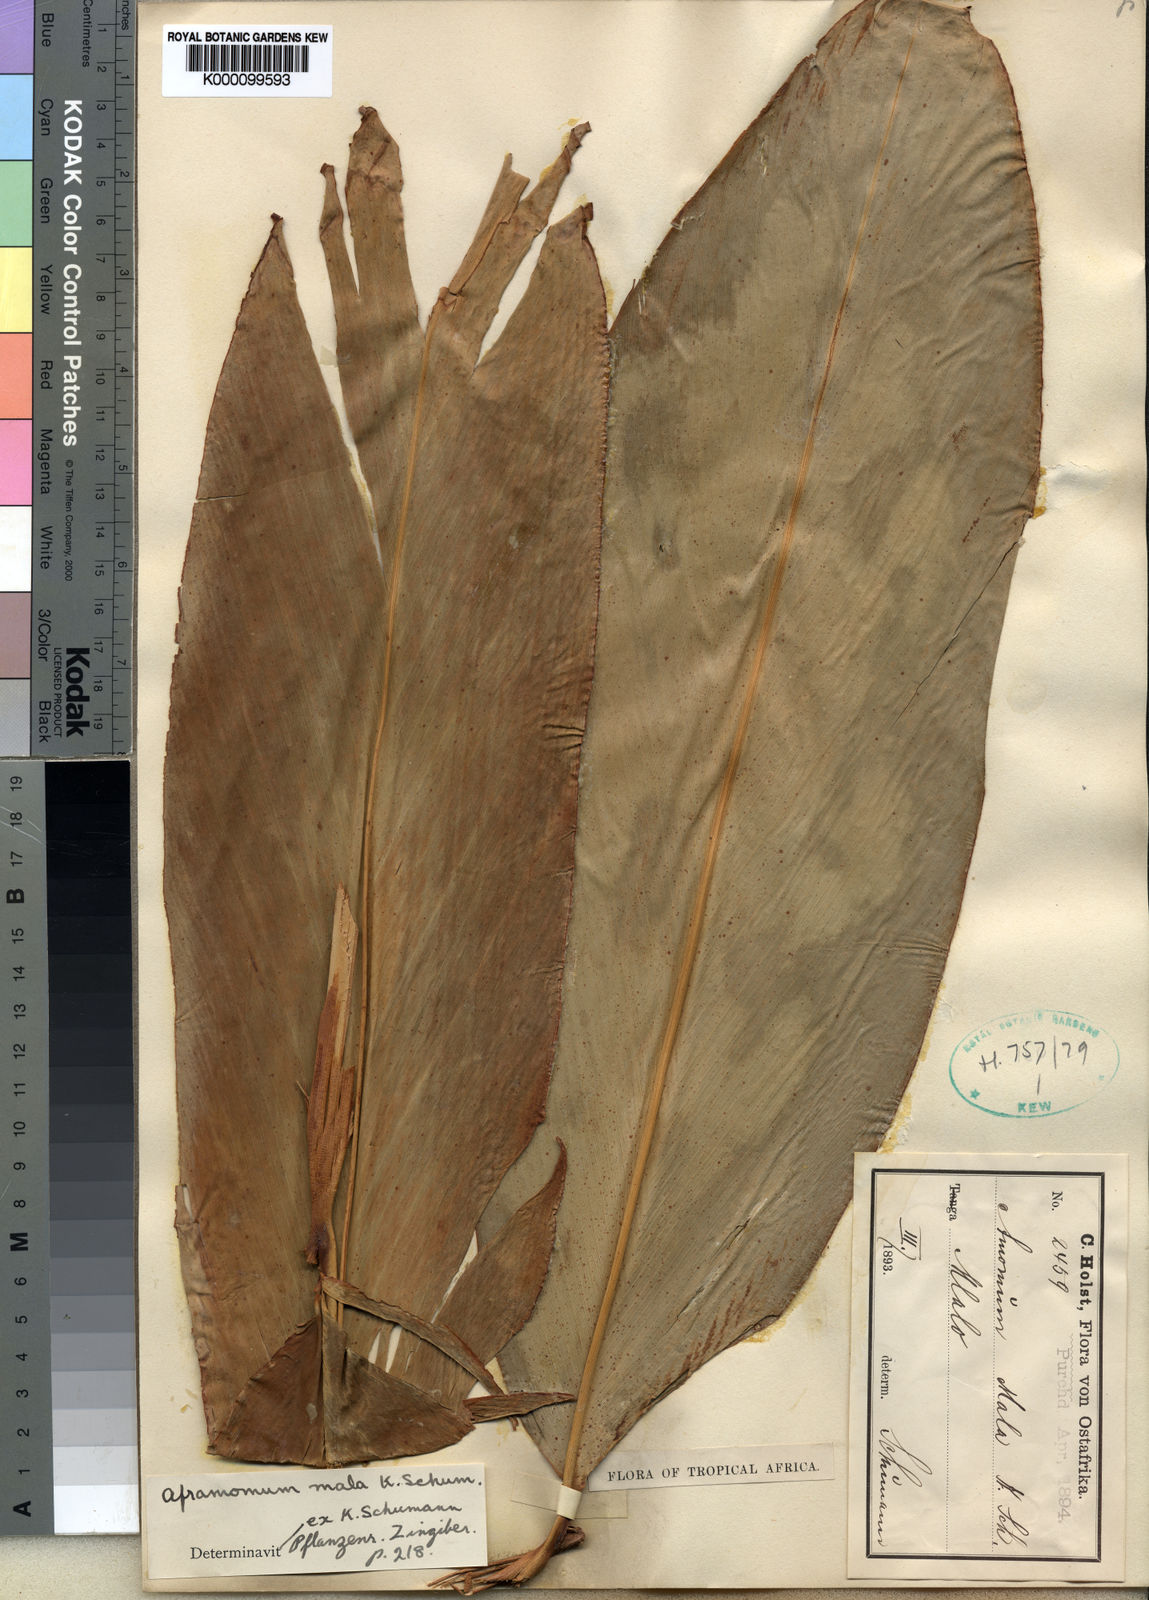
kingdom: Plantae
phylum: Tracheophyta
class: Liliopsida
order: Zingiberales
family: Zingiberaceae
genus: Aframomum
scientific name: Aframomum mala
